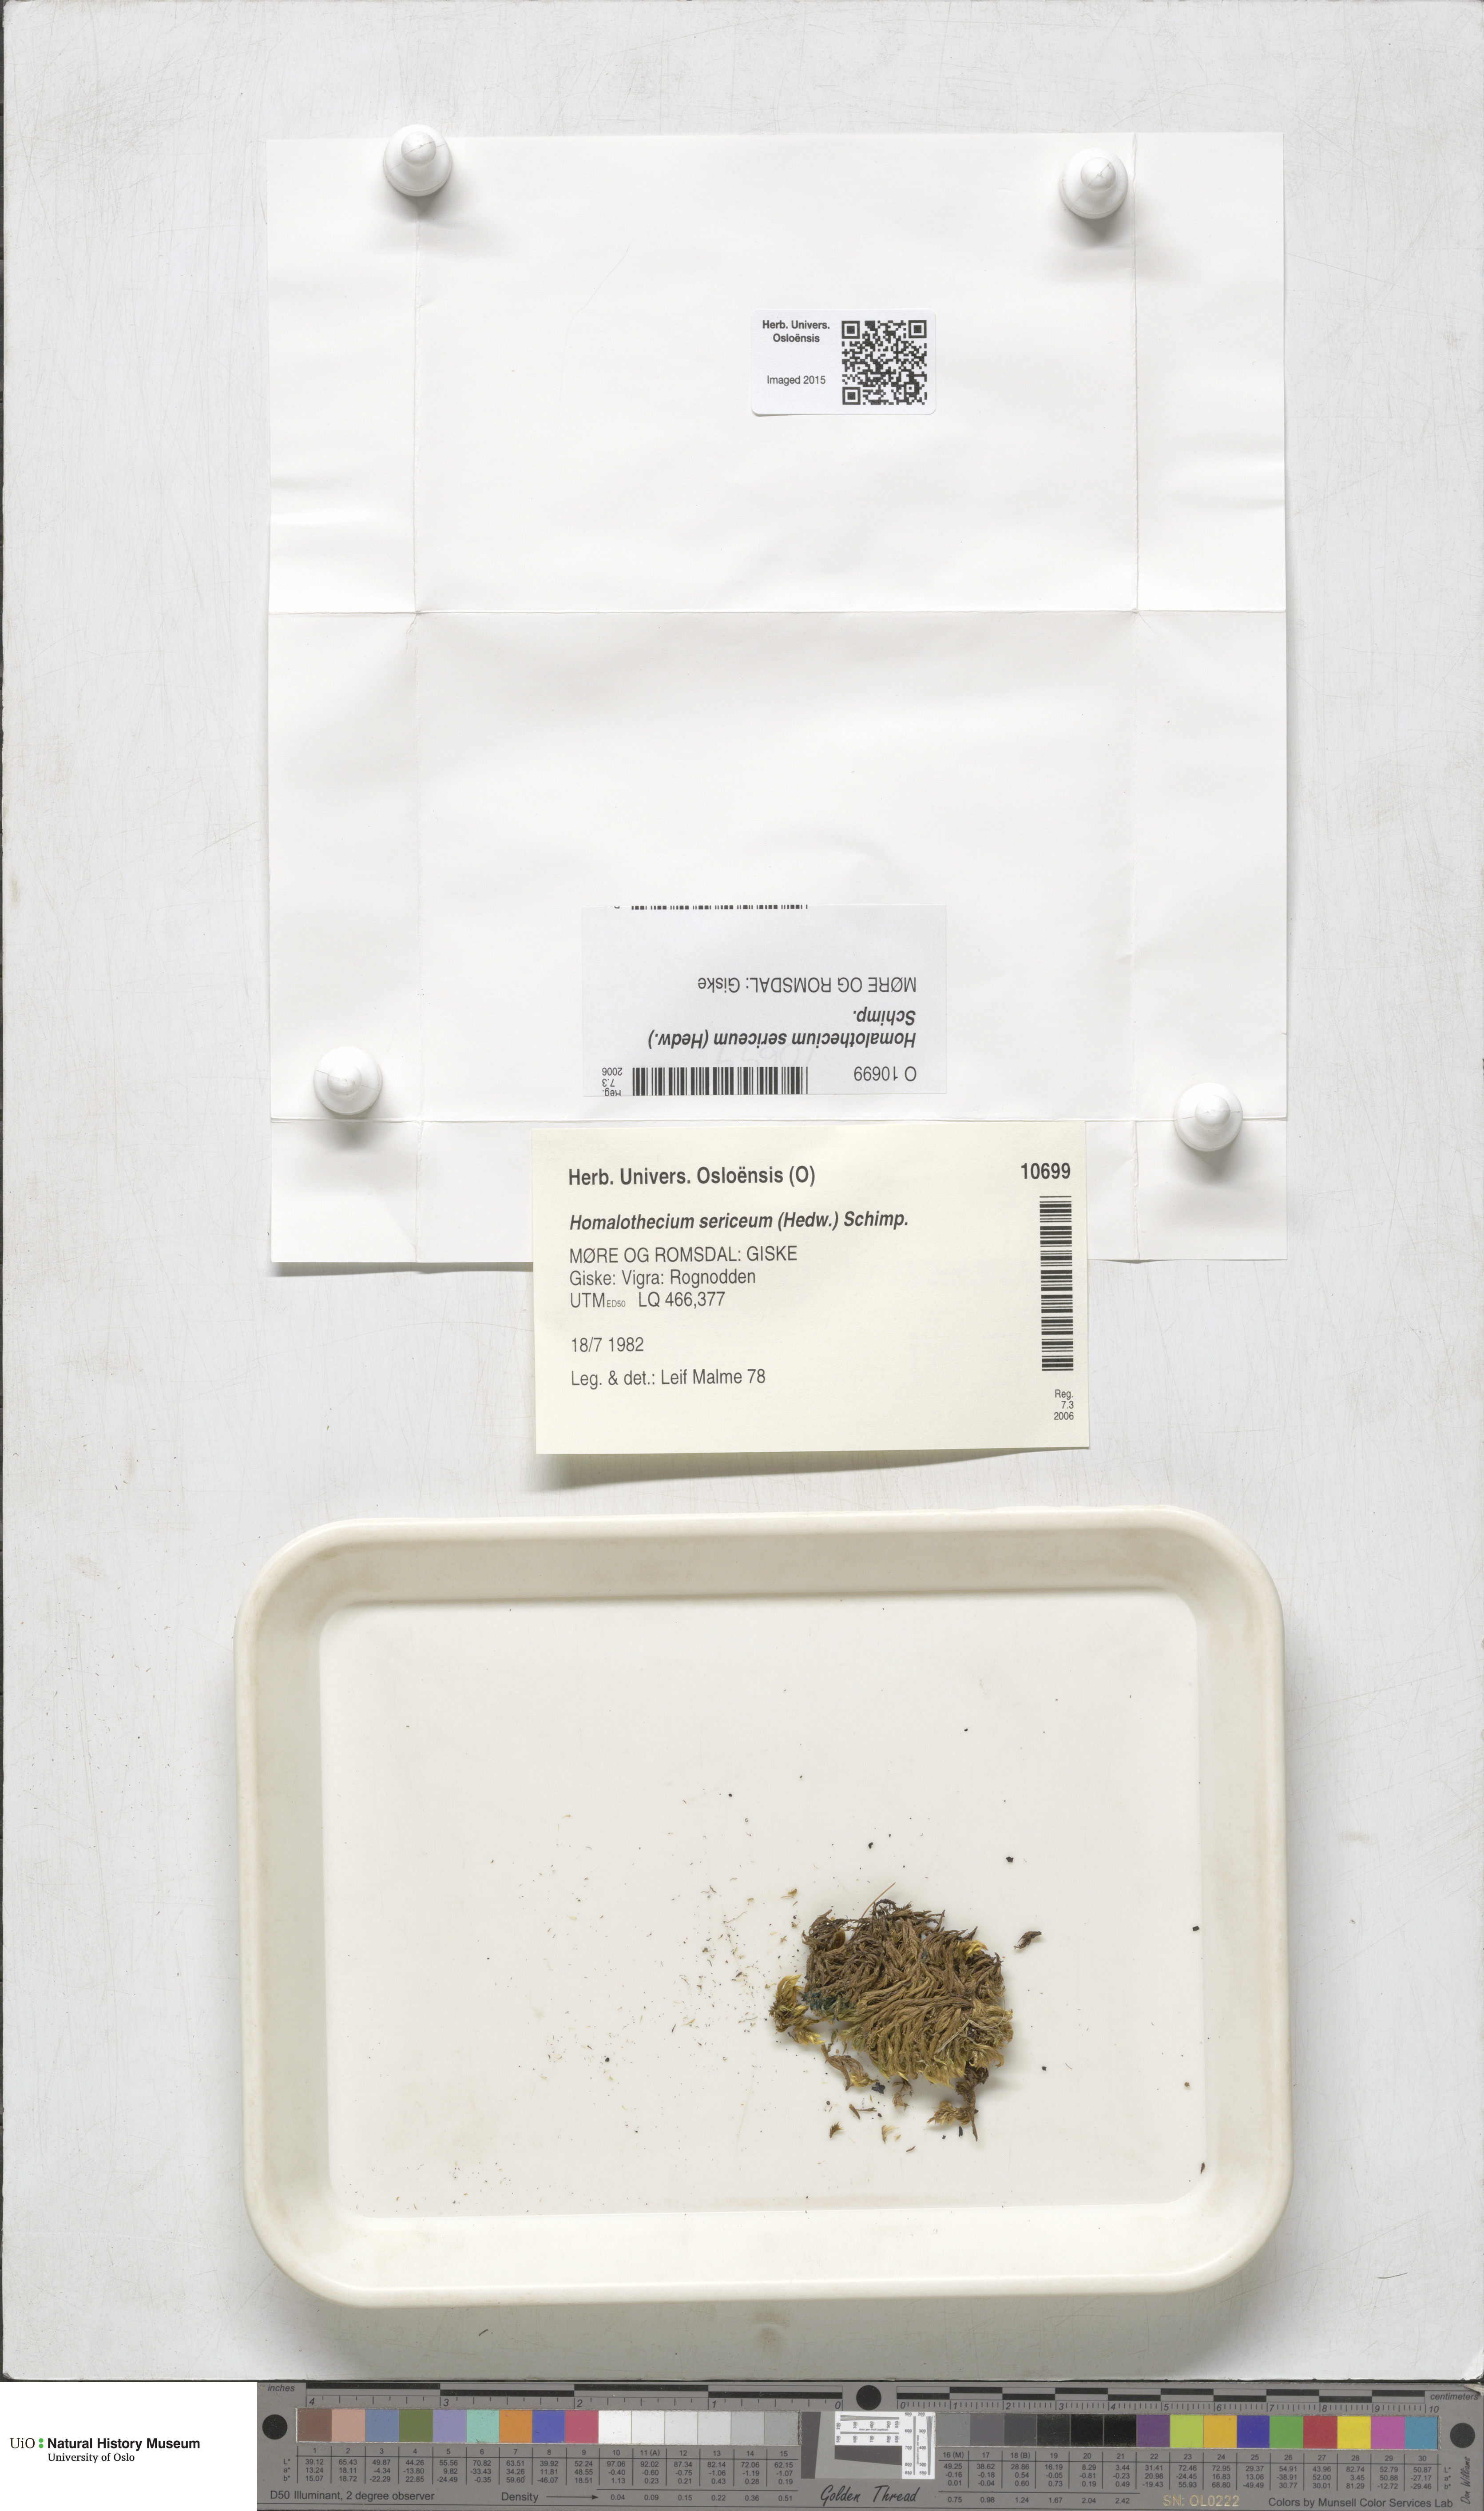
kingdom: Plantae
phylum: Bryophyta
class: Bryopsida
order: Hypnales
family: Brachytheciaceae
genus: Homalothecium
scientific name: Homalothecium sericeum
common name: Silky wall feather-moss
